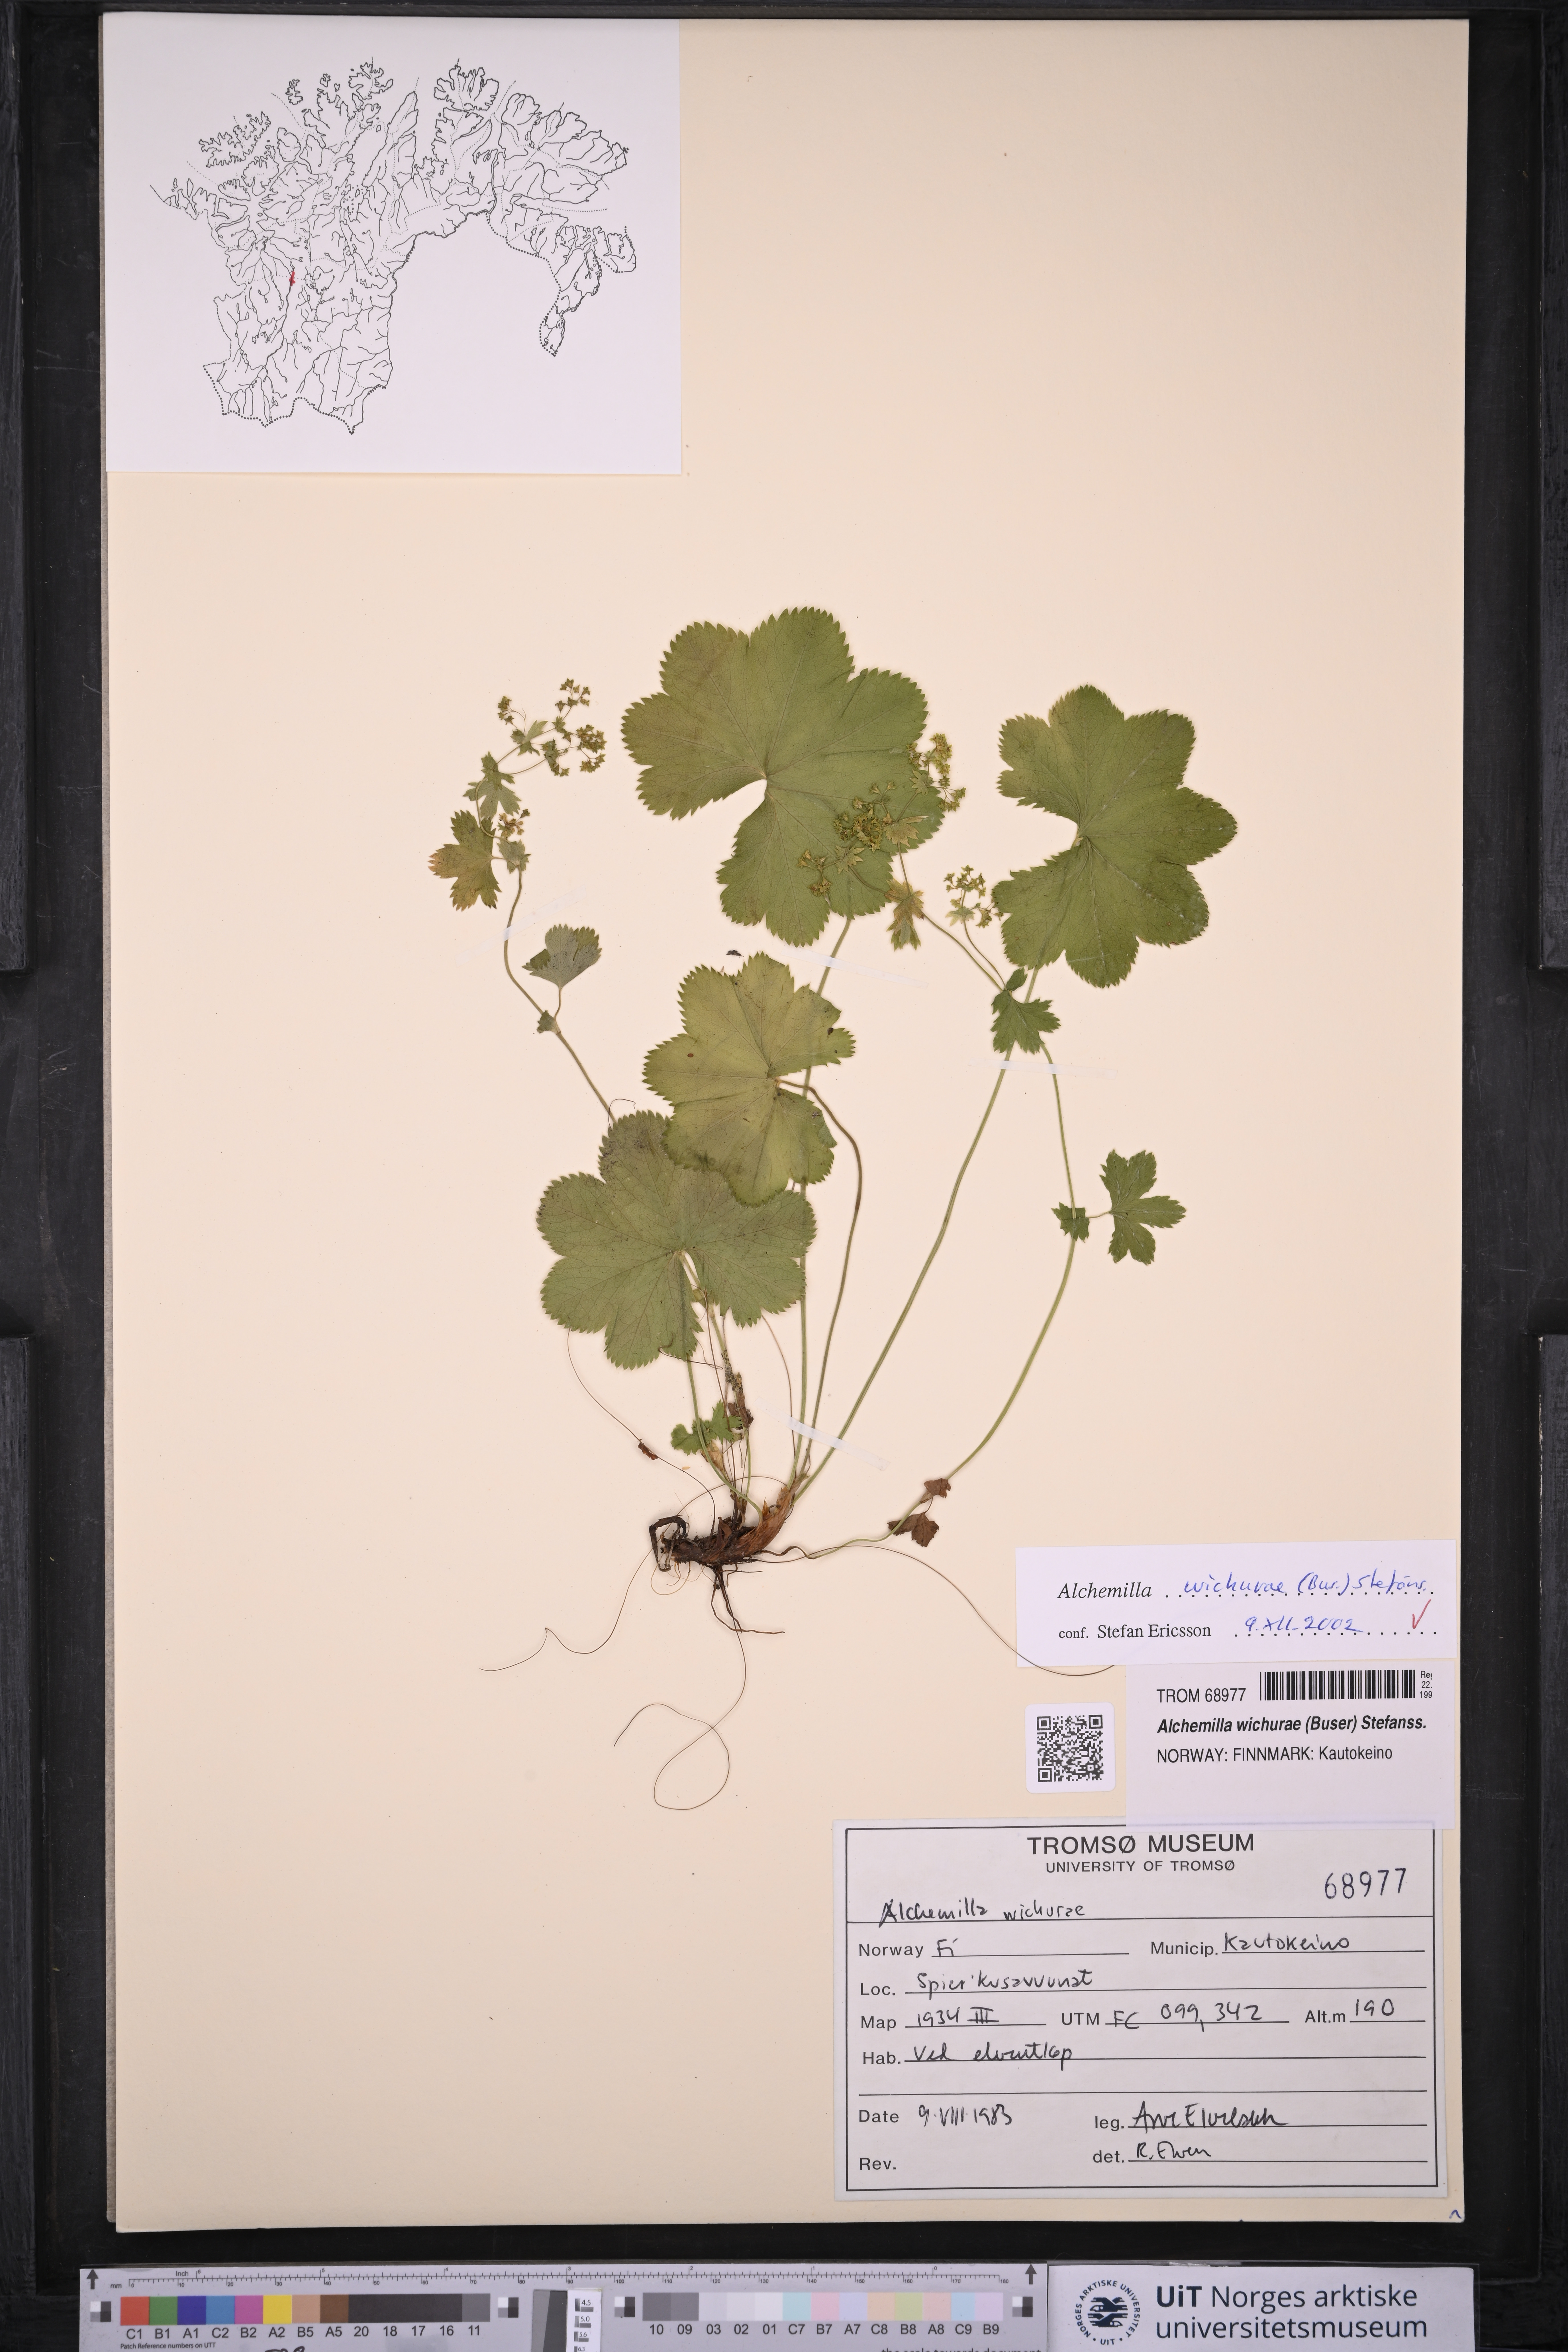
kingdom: Plantae
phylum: Tracheophyta
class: Magnoliopsida
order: Rosales
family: Rosaceae
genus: Alchemilla
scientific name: Alchemilla wichurae
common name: Rock lady's mantle
